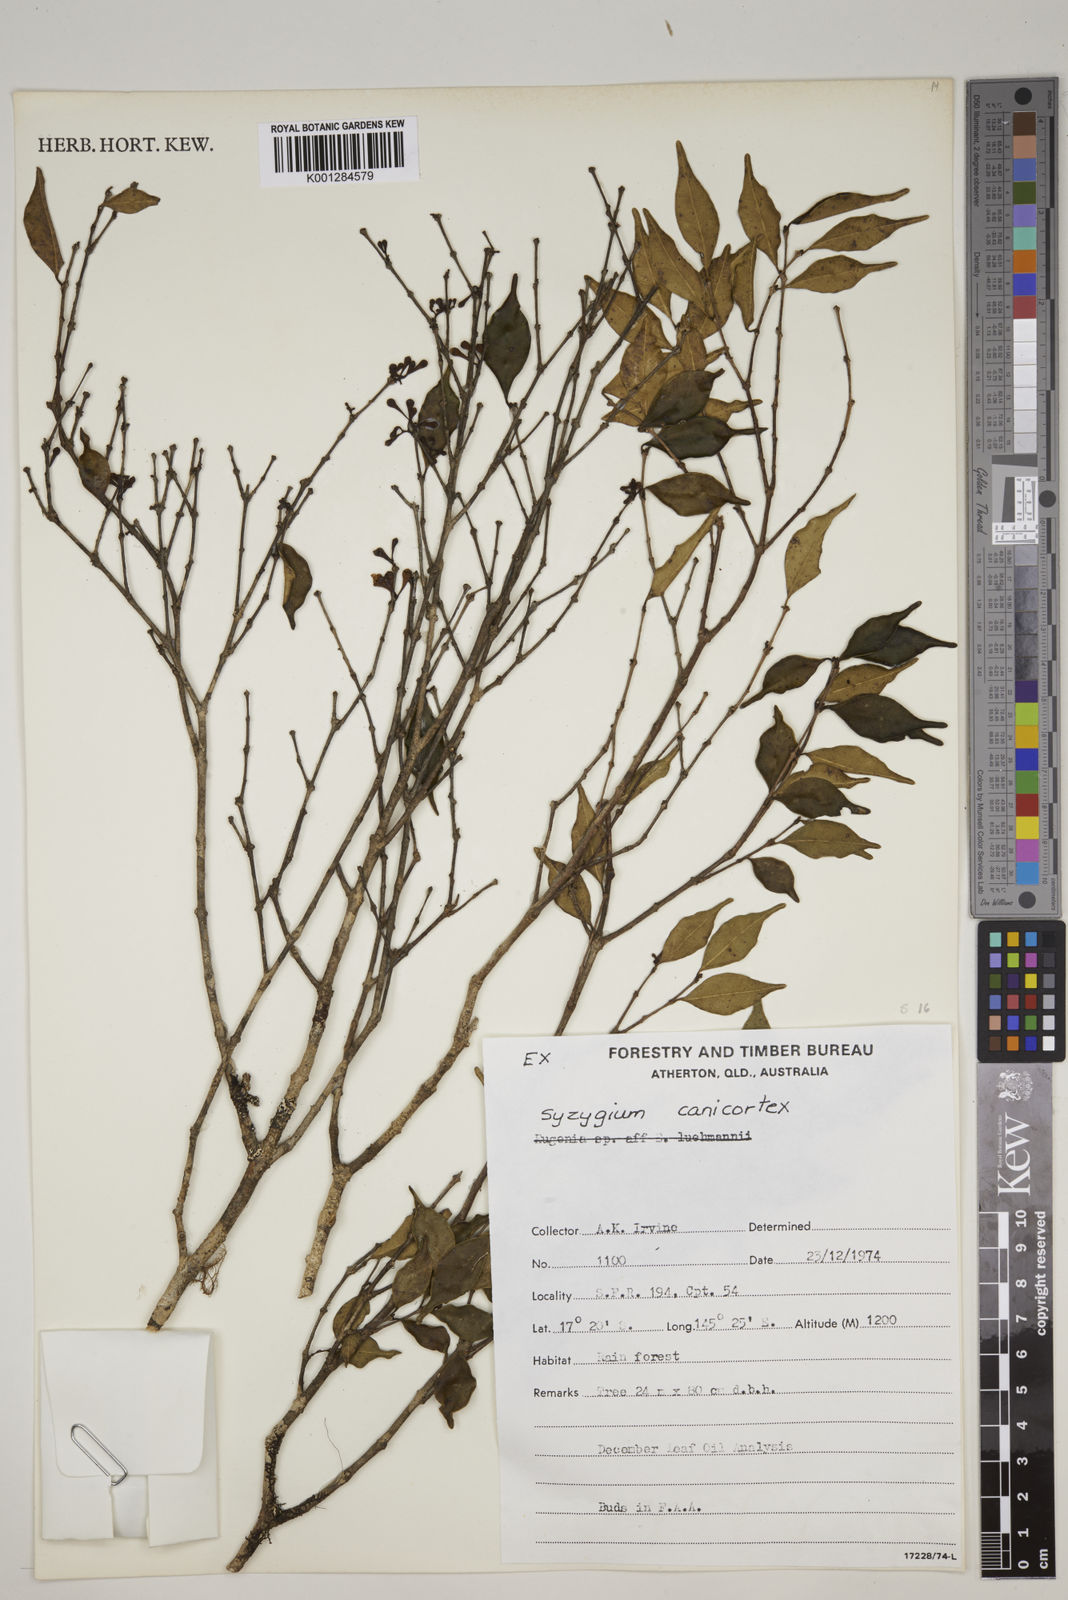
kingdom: Plantae
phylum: Tracheophyta
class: Magnoliopsida
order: Myrtales
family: Myrtaceae
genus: Syzygium
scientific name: Syzygium canicortex
